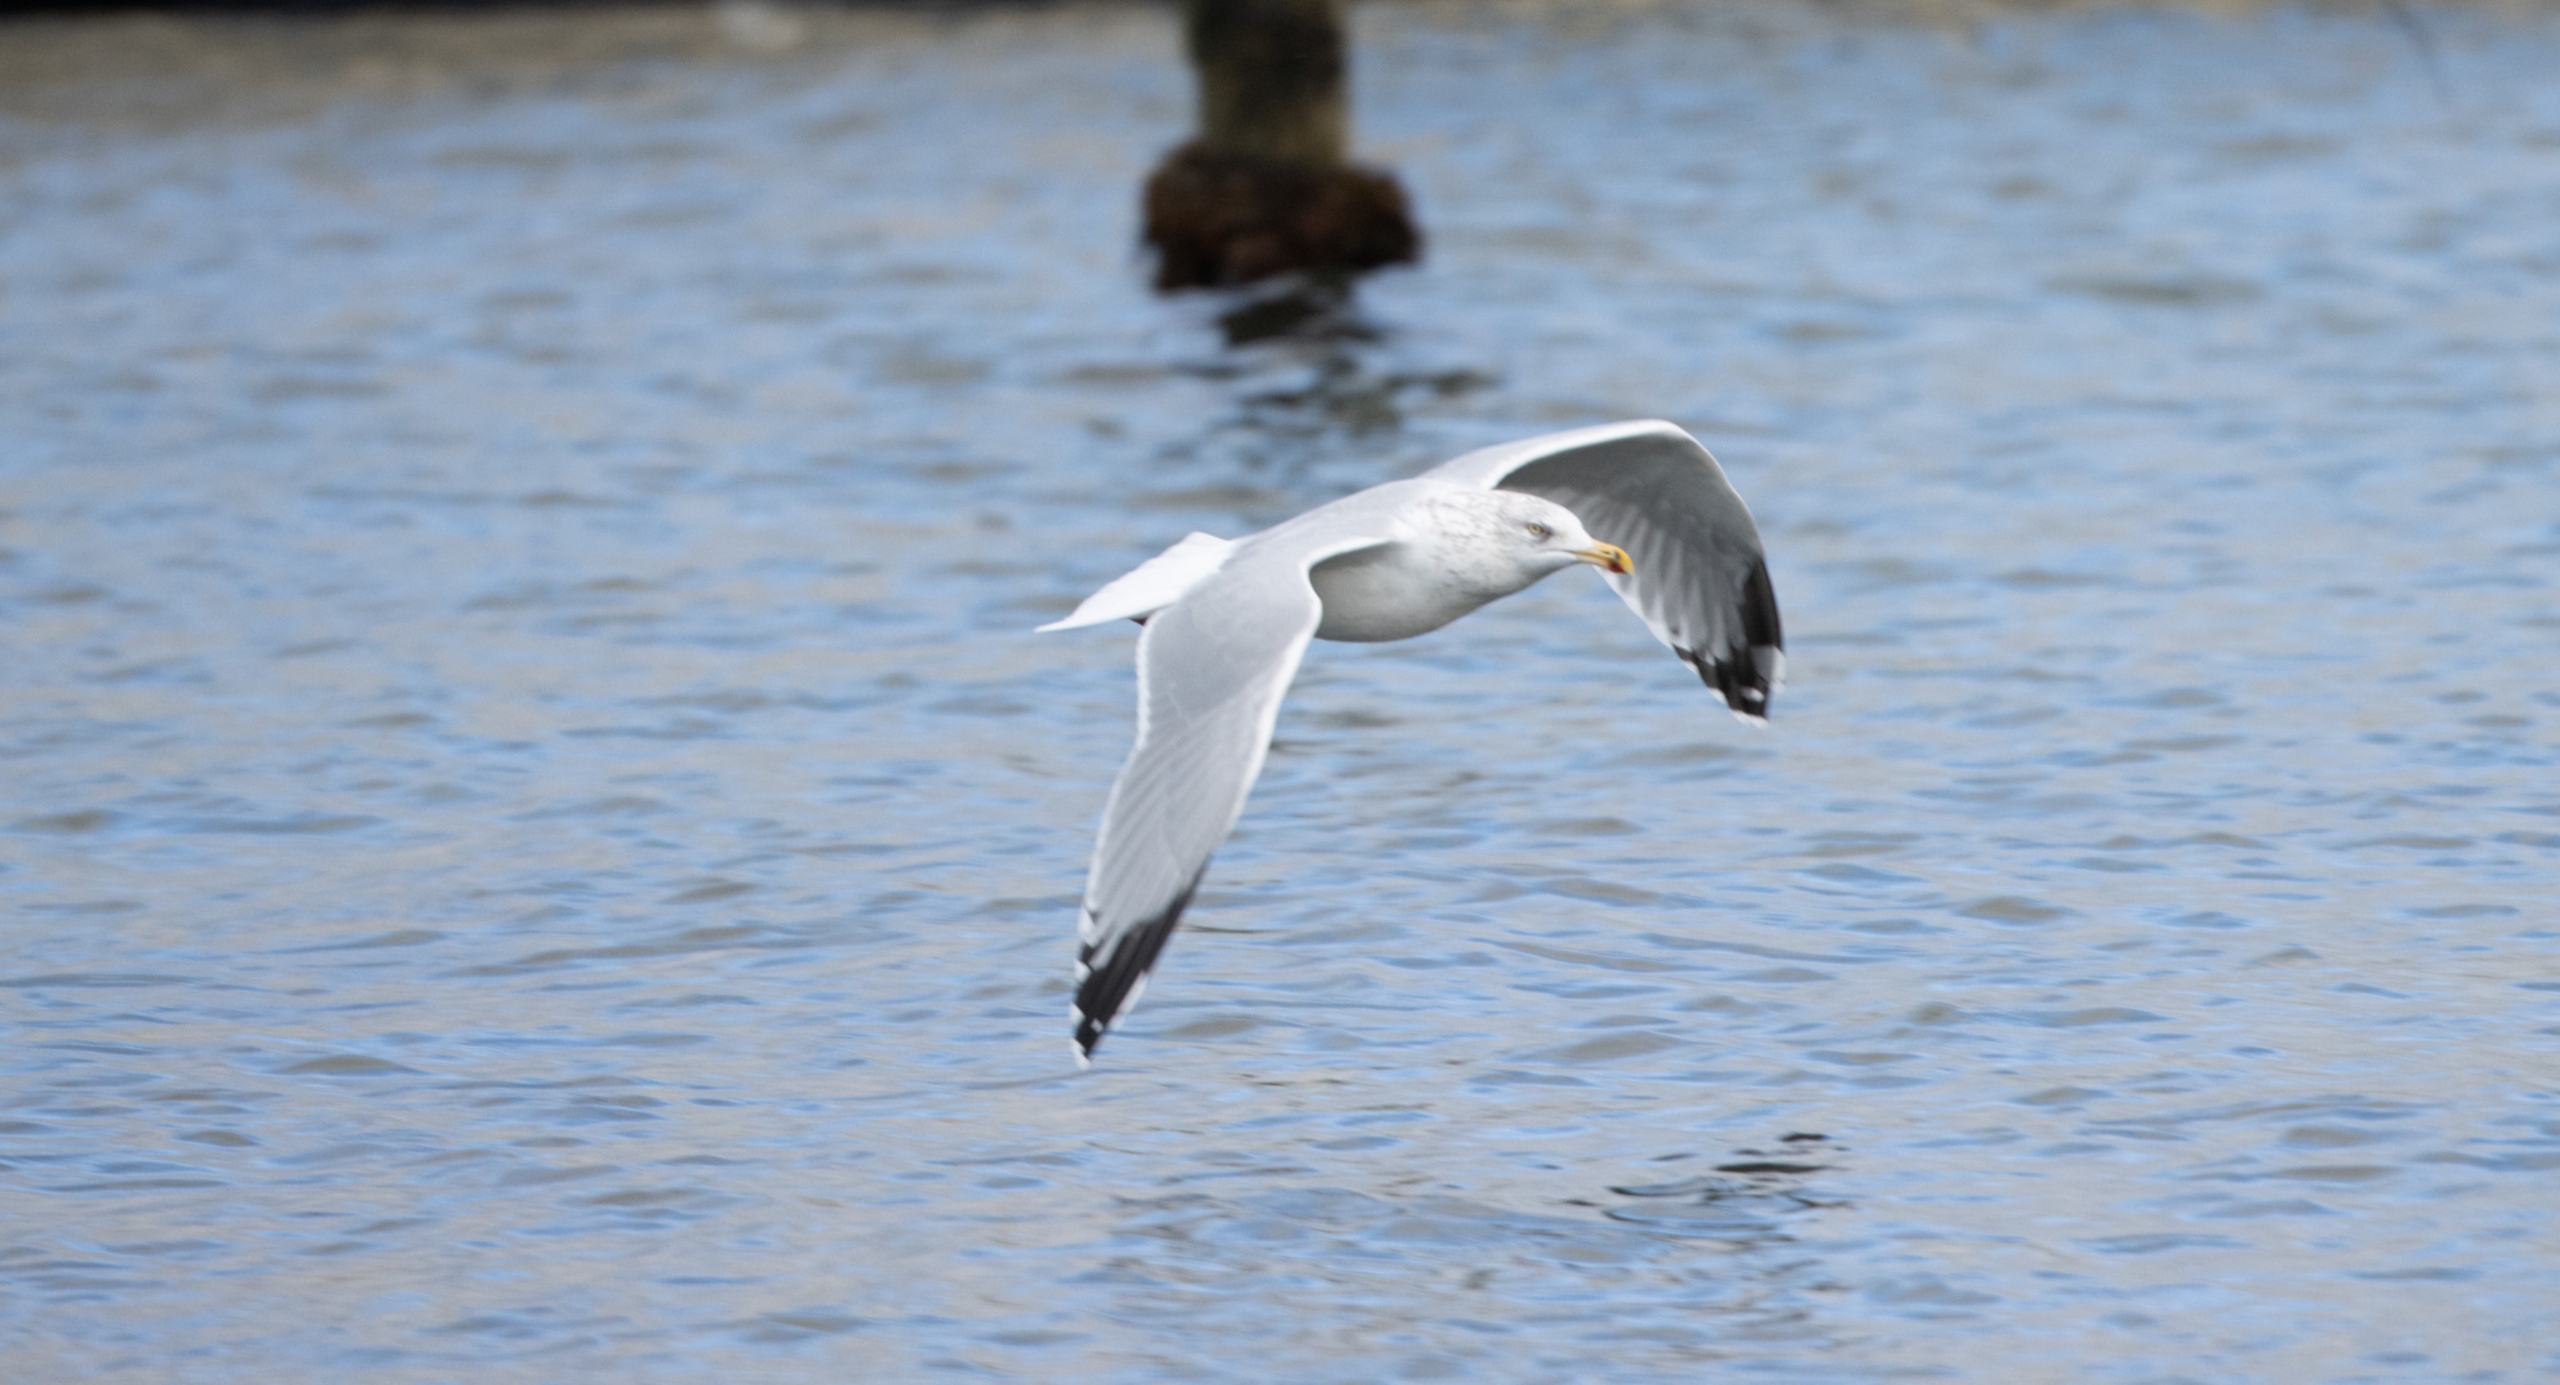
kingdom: Animalia
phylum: Chordata
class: Aves
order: Charadriiformes
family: Laridae
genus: Larus
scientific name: Larus argentatus
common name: Sølvmåge
